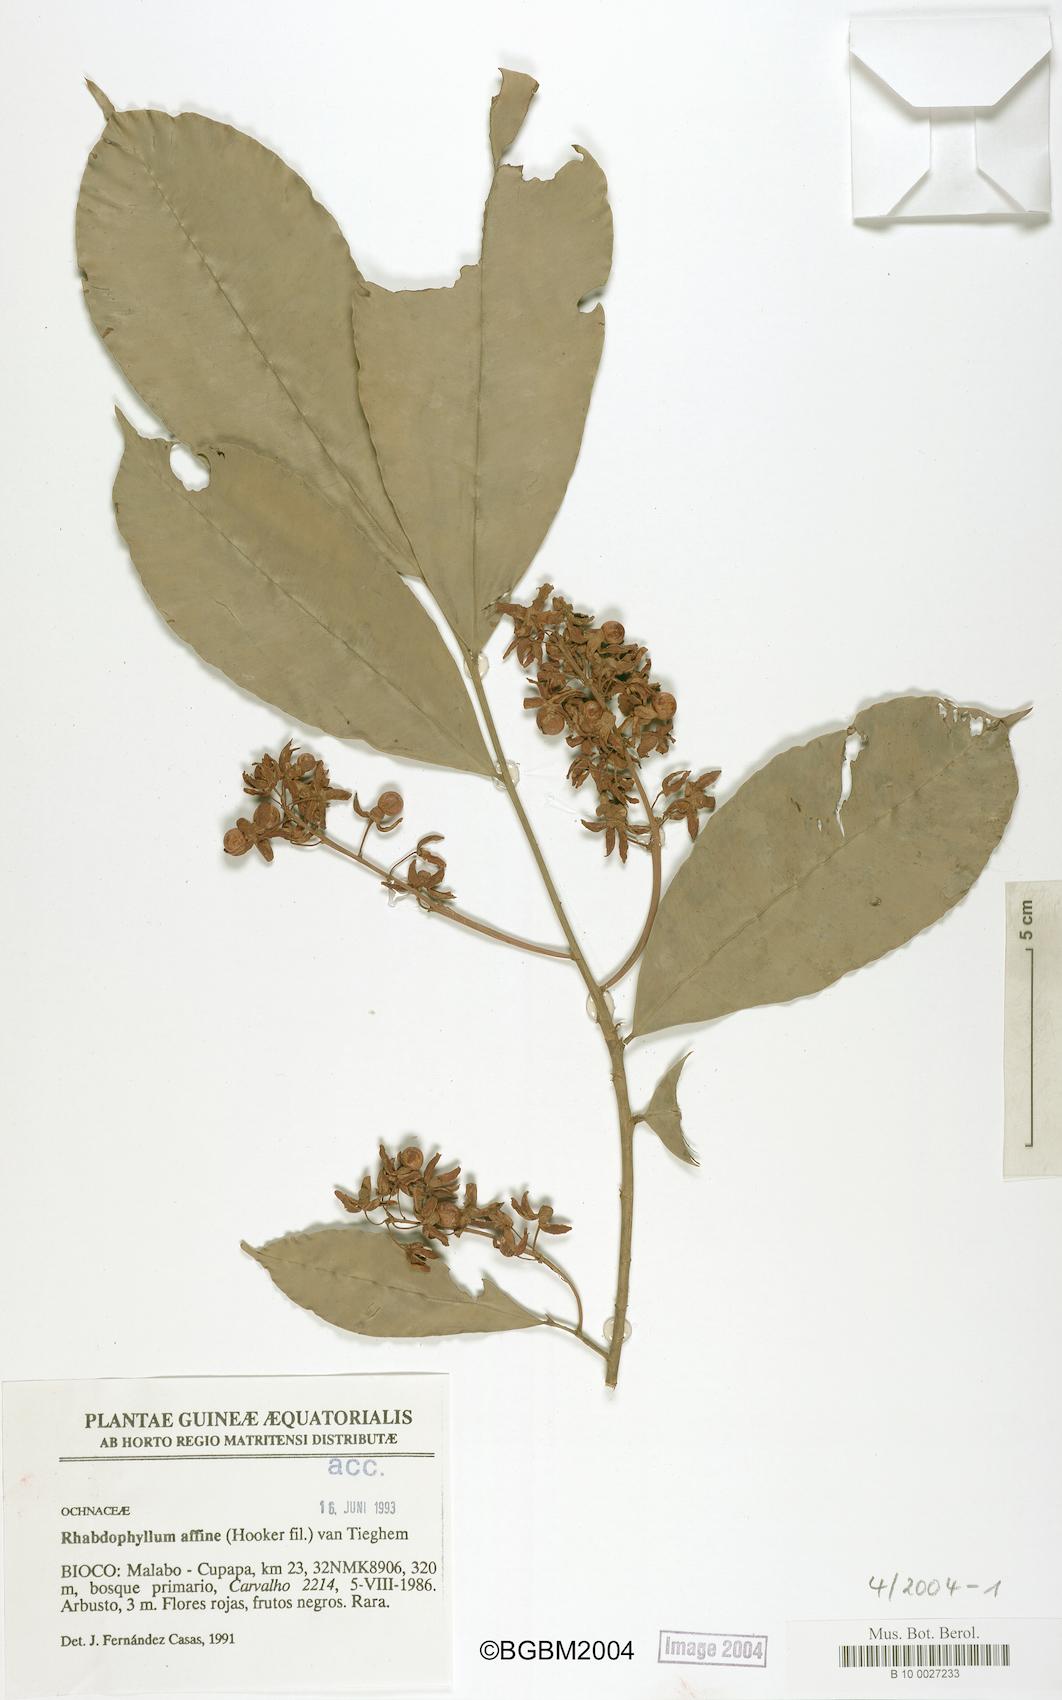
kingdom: Plantae
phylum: Tracheophyta
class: Magnoliopsida
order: Malpighiales
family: Ochnaceae
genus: Rhabdophyllum
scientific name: Rhabdophyllum affine
